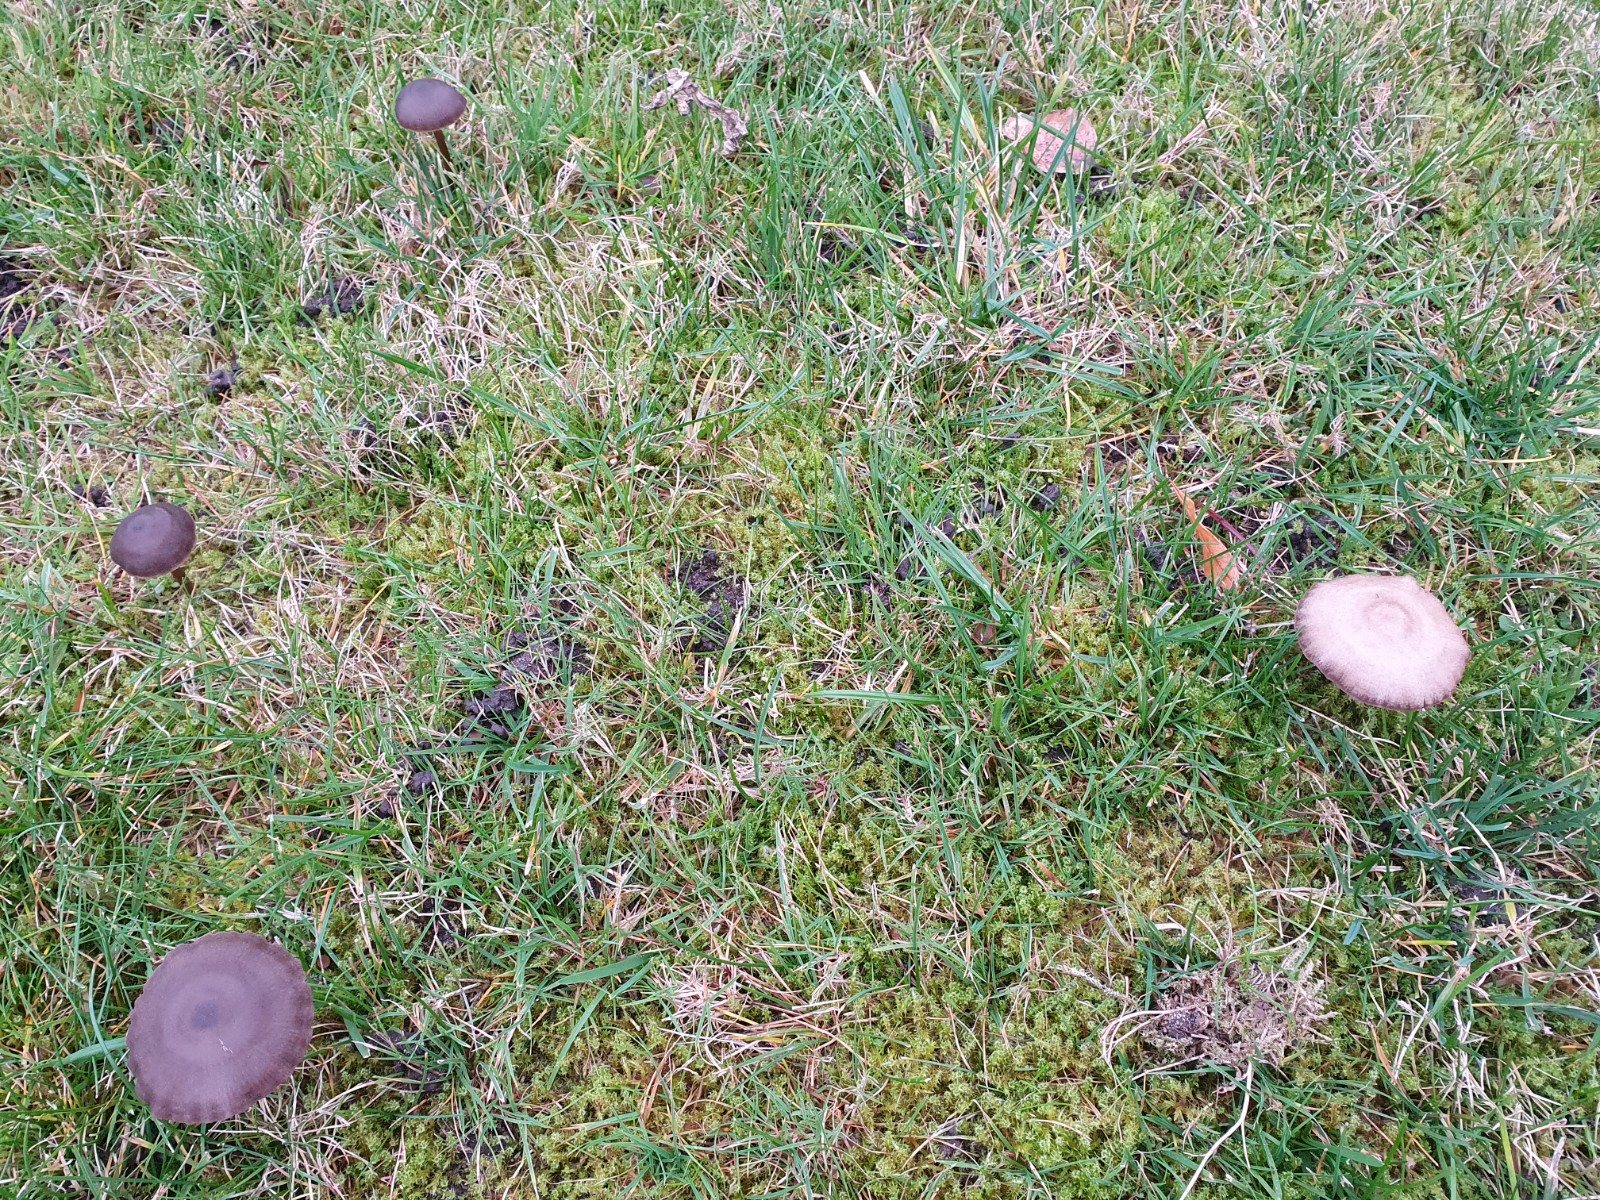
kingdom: Fungi
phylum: Basidiomycota
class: Agaricomycetes
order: Agaricales
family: Hydnangiaceae
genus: Laccaria
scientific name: Laccaria amethystina
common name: violet ametysthat
